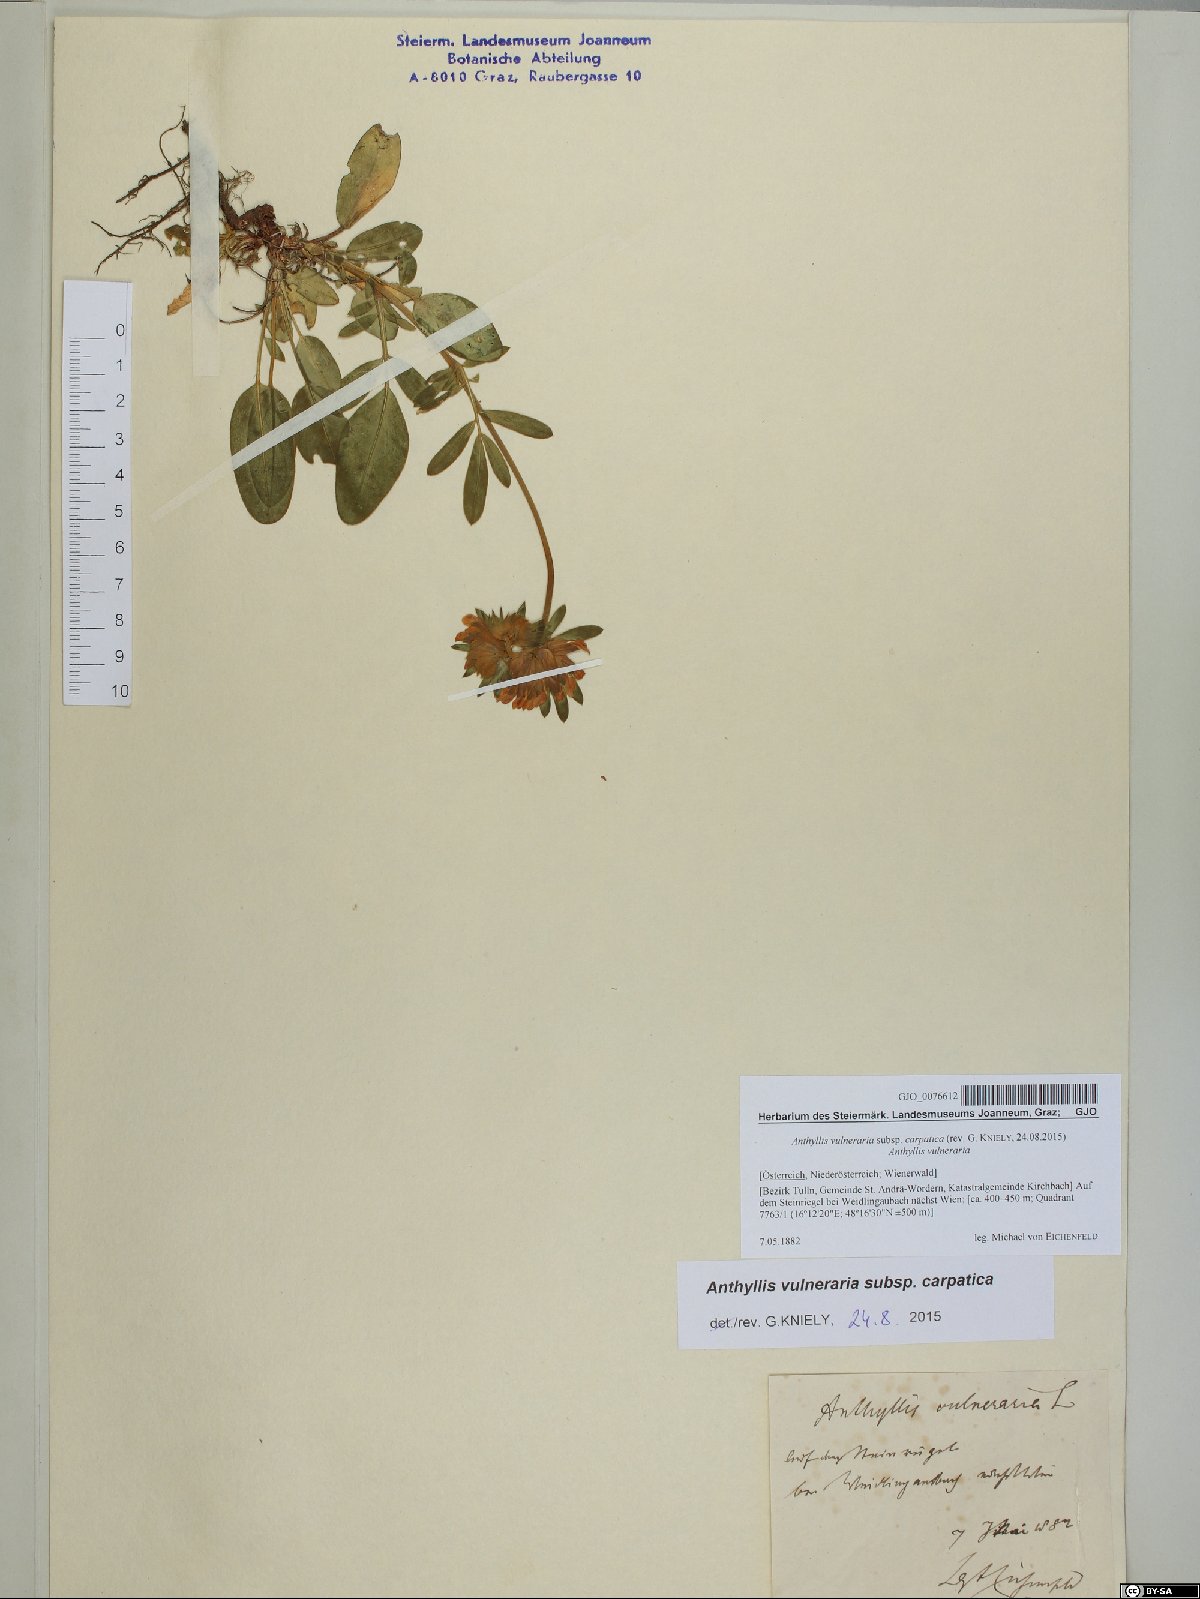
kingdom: Plantae
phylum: Tracheophyta
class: Magnoliopsida
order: Fabales
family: Fabaceae
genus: Anthyllis
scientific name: Anthyllis vulneraria
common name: Kidney vetch
